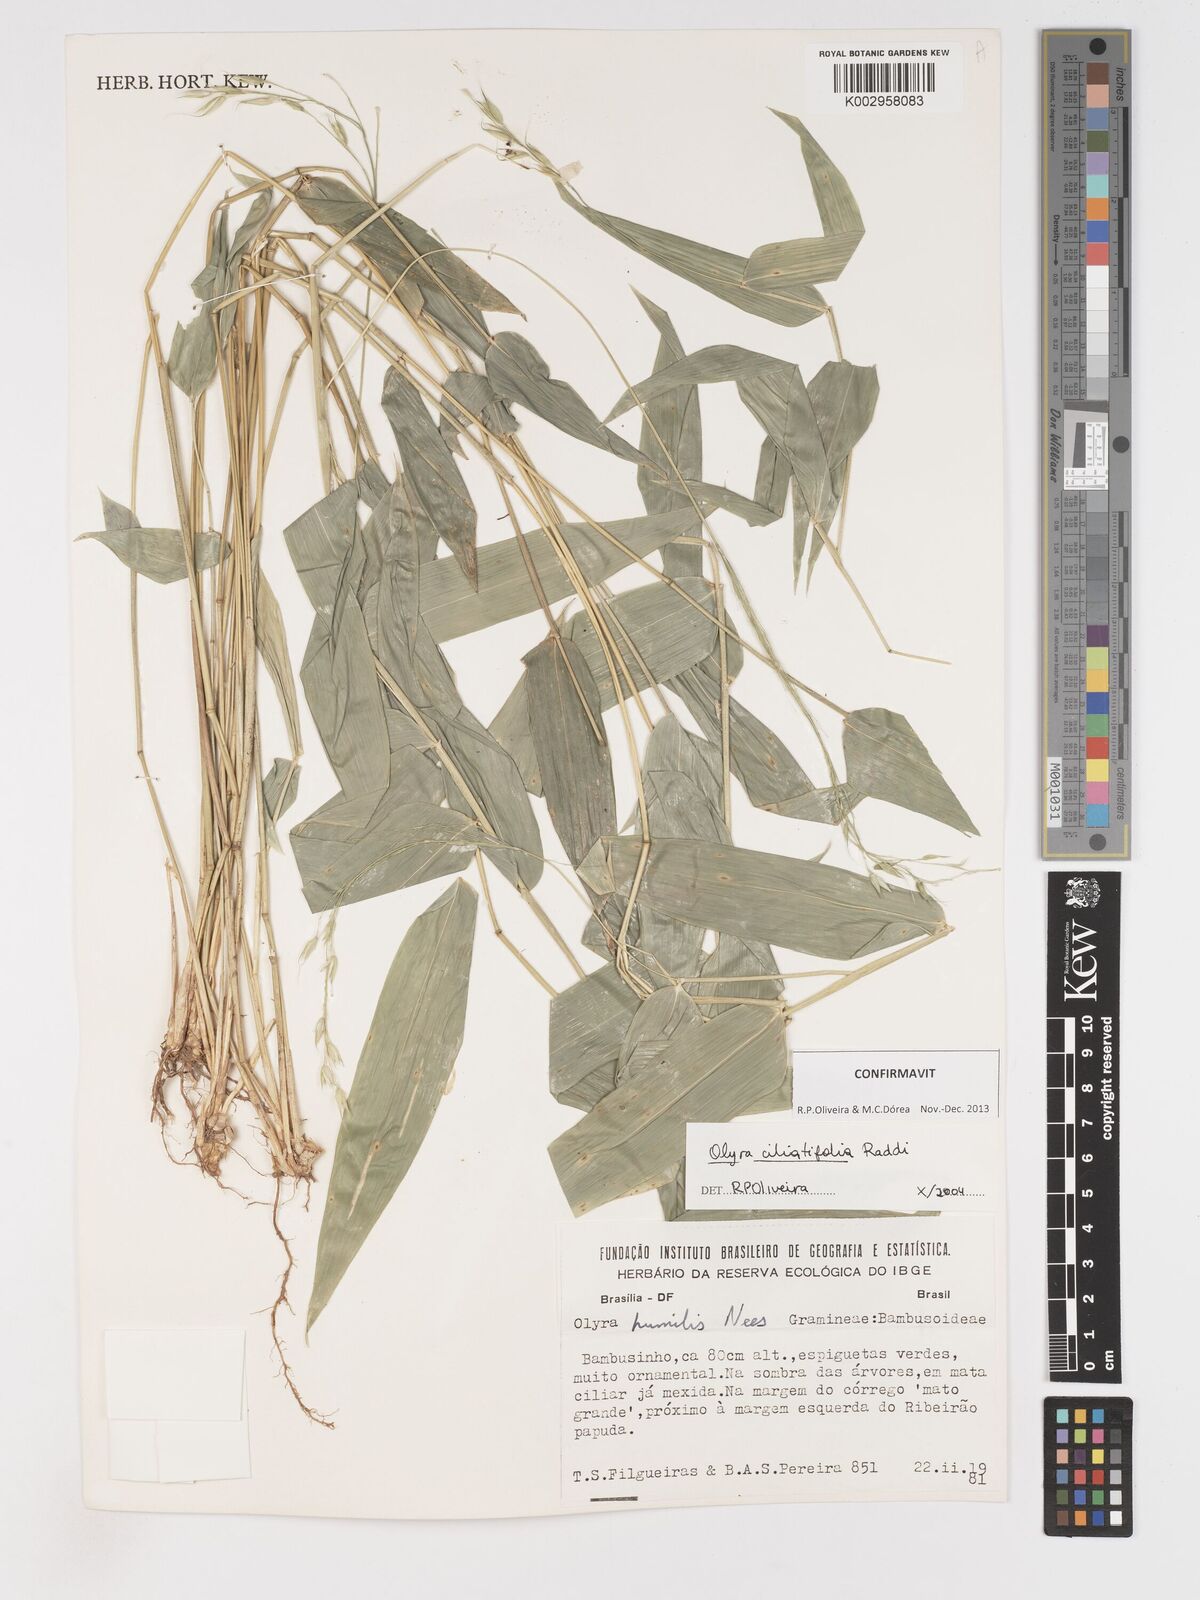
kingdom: Plantae
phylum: Tracheophyta
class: Liliopsida
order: Poales
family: Poaceae
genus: Olyra
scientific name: Olyra ciliatifolia
